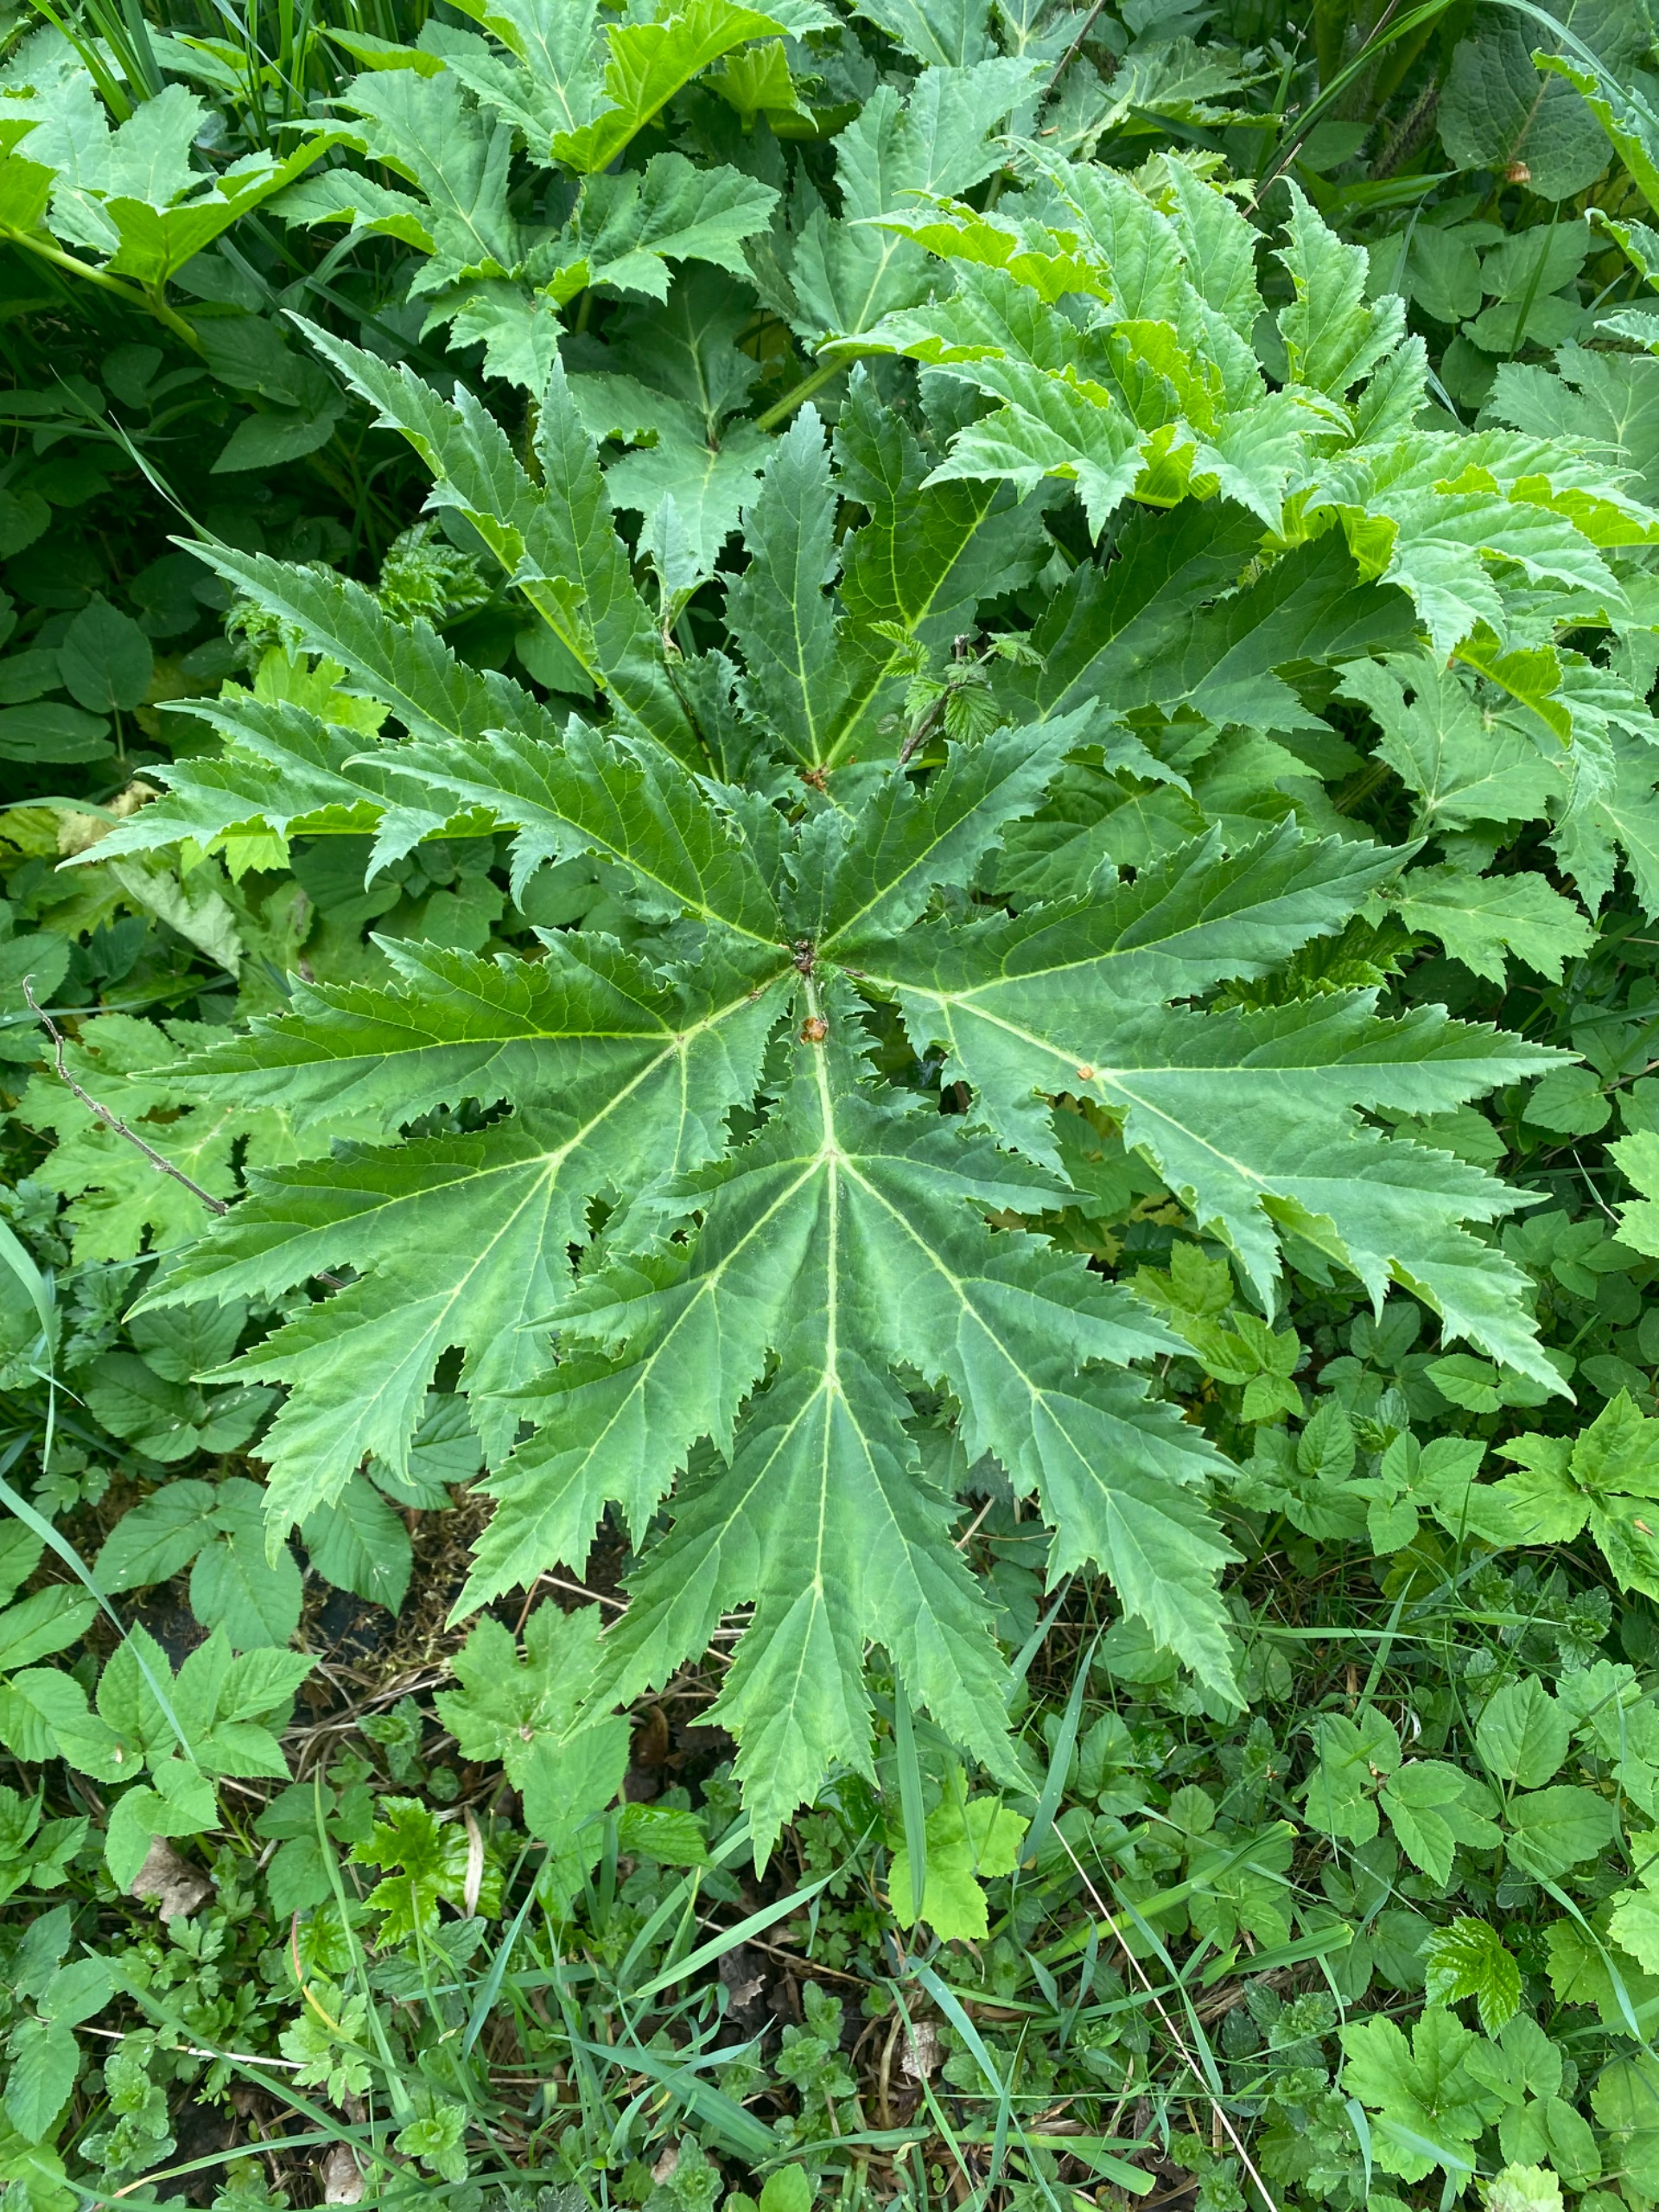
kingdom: Plantae
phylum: Tracheophyta
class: Magnoliopsida
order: Apiales
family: Apiaceae
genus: Heracleum
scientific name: Heracleum mantegazzianum
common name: Kæmpe-bjørneklo
